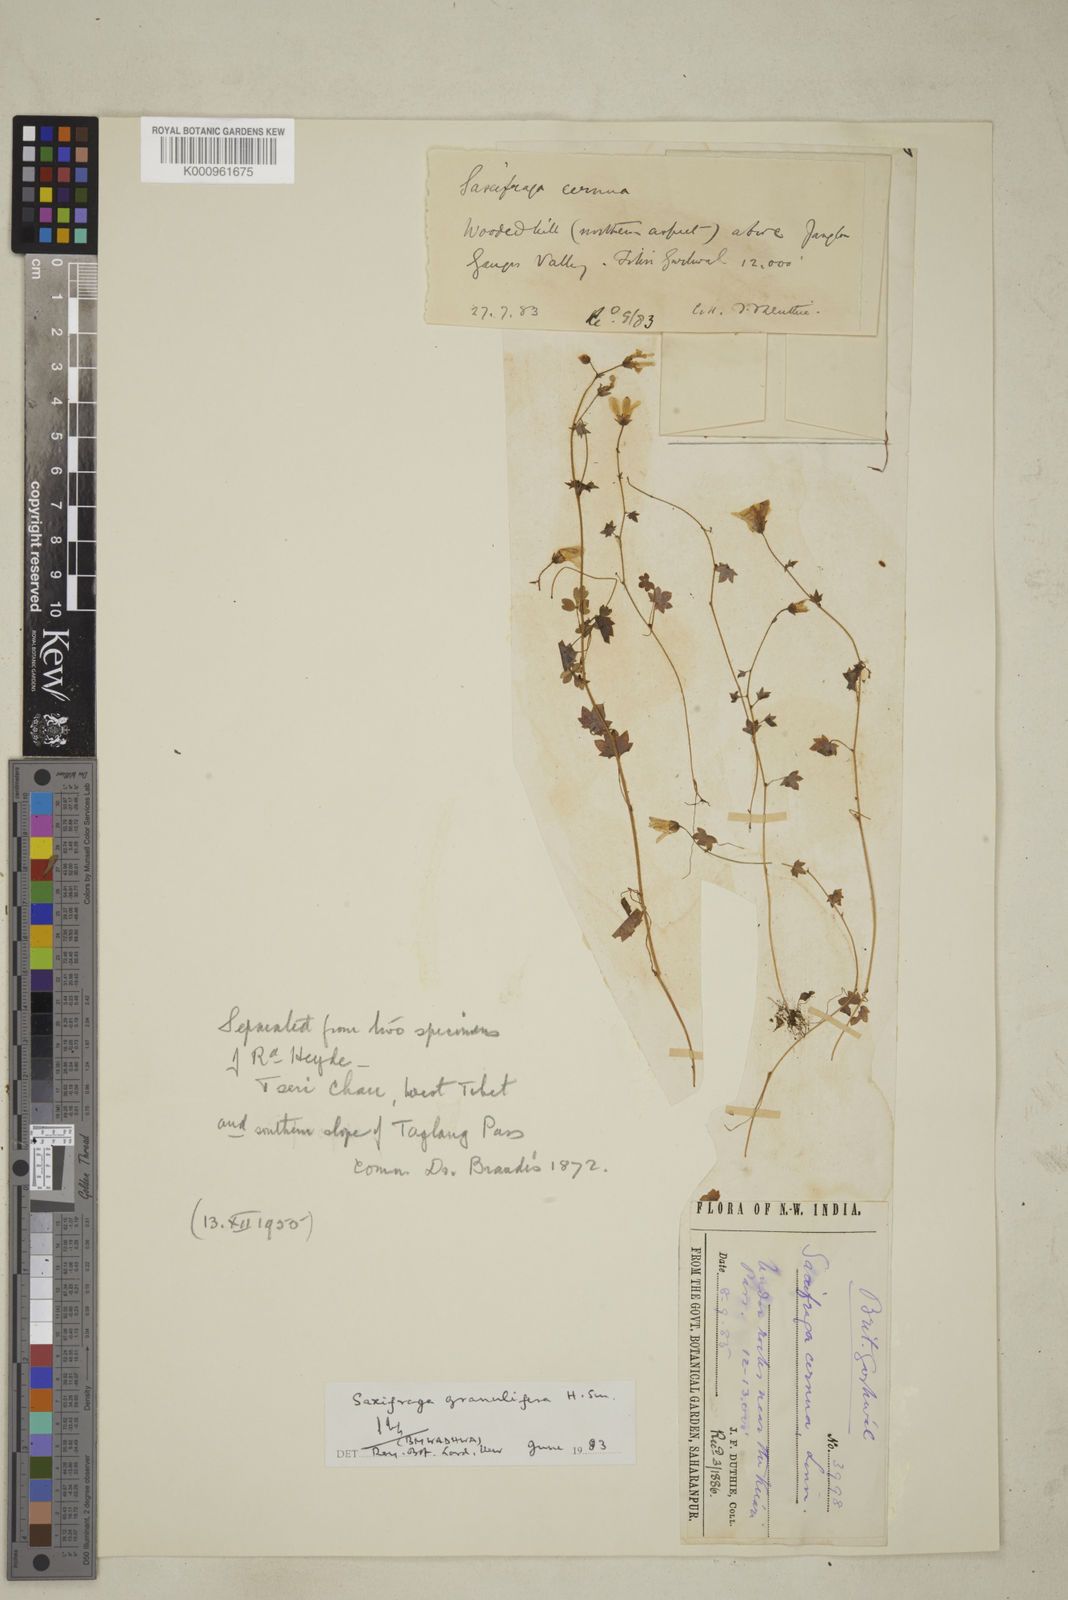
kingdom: Plantae
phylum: Tracheophyta
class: Magnoliopsida
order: Saxifragales
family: Saxifragaceae
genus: Saxifraga
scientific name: Saxifraga granulifera
